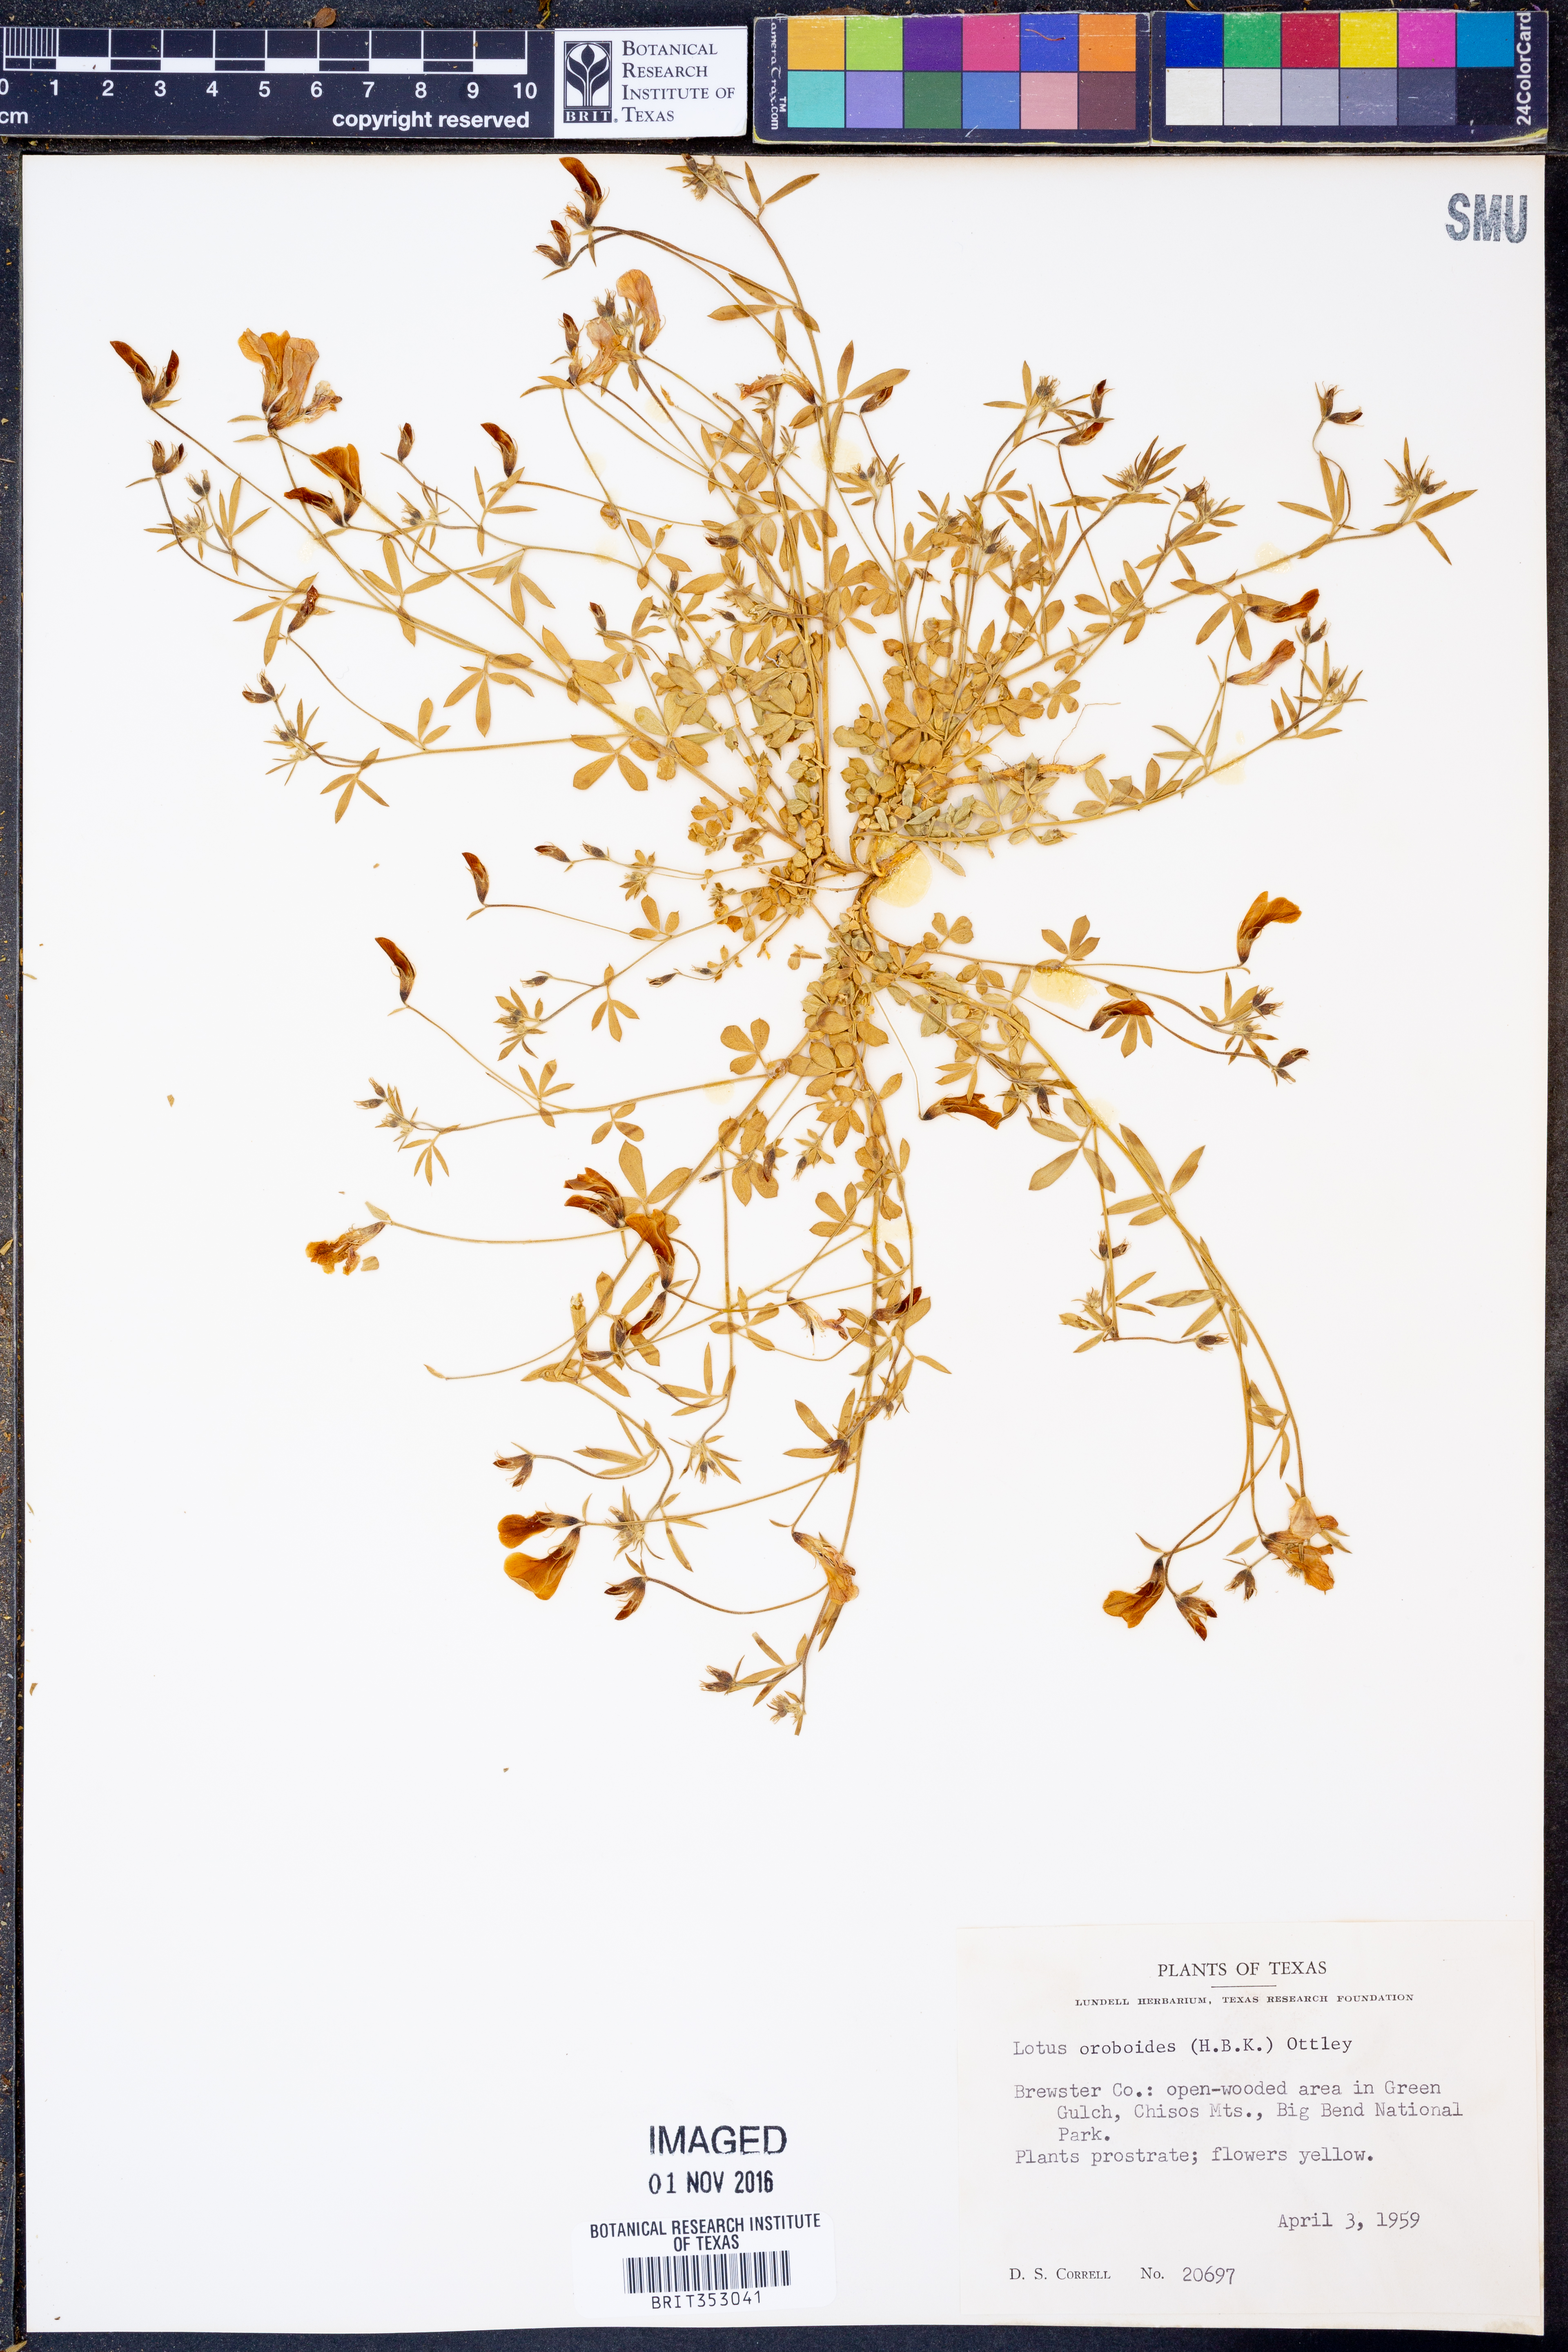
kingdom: Plantae
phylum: Tracheophyta
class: Magnoliopsida
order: Fabales
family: Fabaceae
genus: Acmispon
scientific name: Acmispon oroboides
